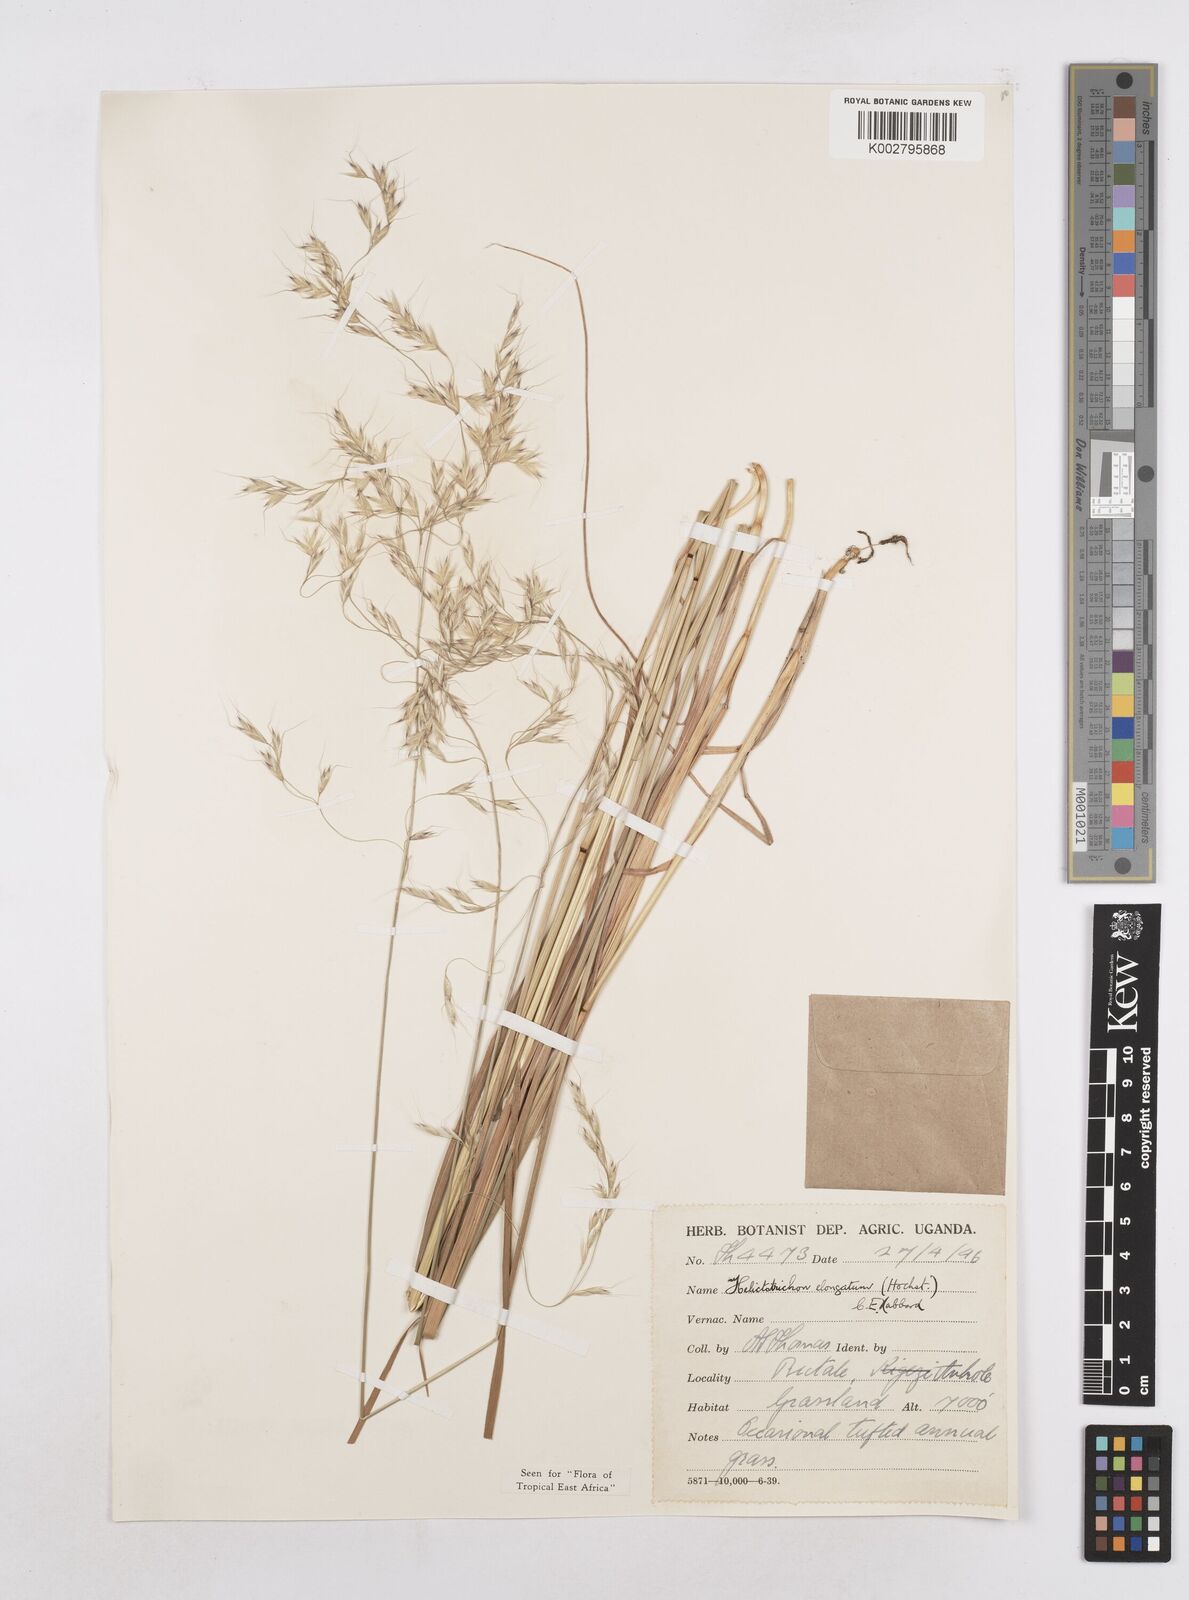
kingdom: Plantae
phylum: Tracheophyta
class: Liliopsida
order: Poales
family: Poaceae
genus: Trisetopsis
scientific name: Trisetopsis elongata
